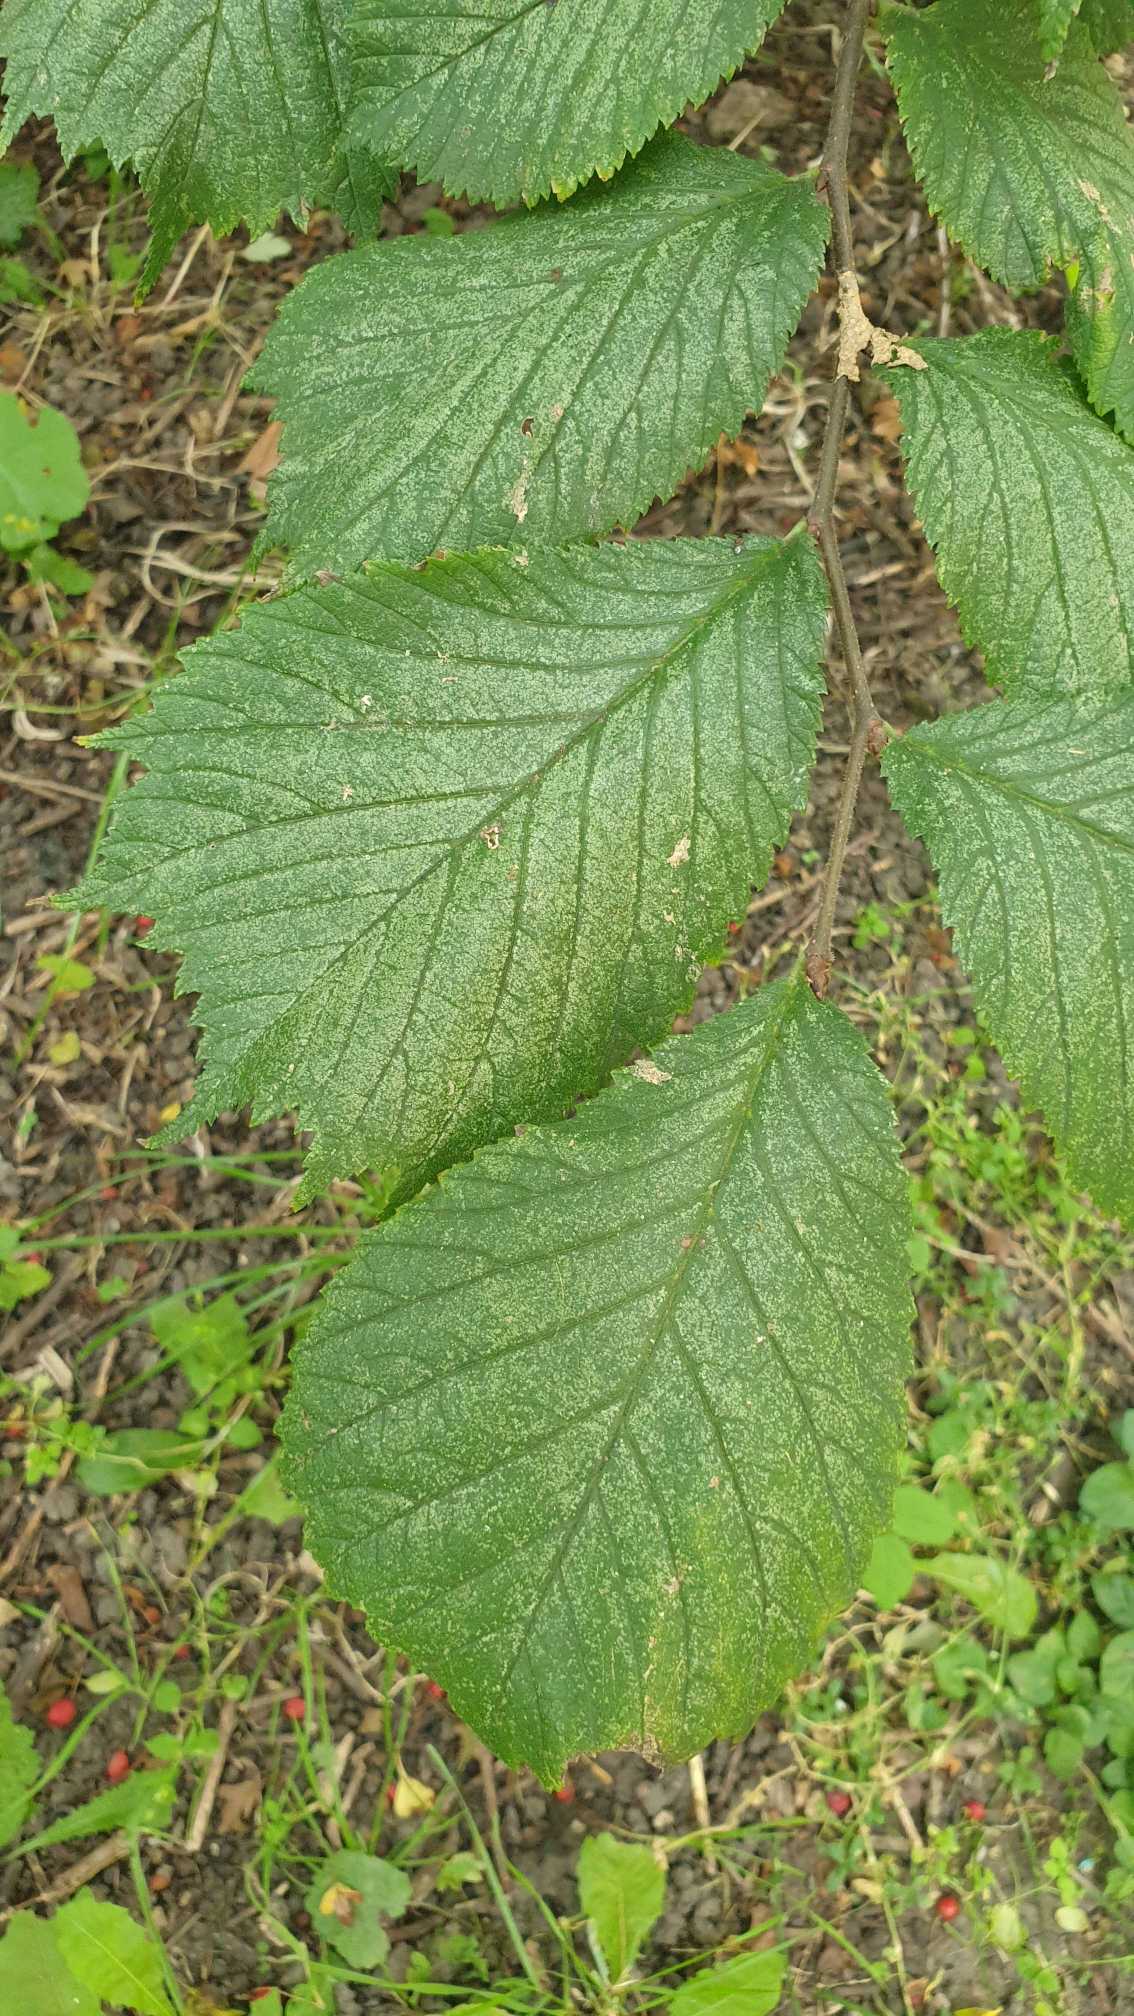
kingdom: Plantae
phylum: Tracheophyta
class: Magnoliopsida
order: Rosales
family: Ulmaceae
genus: Ulmus
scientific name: Ulmus glabra
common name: Skov-elm/storbladet elm
